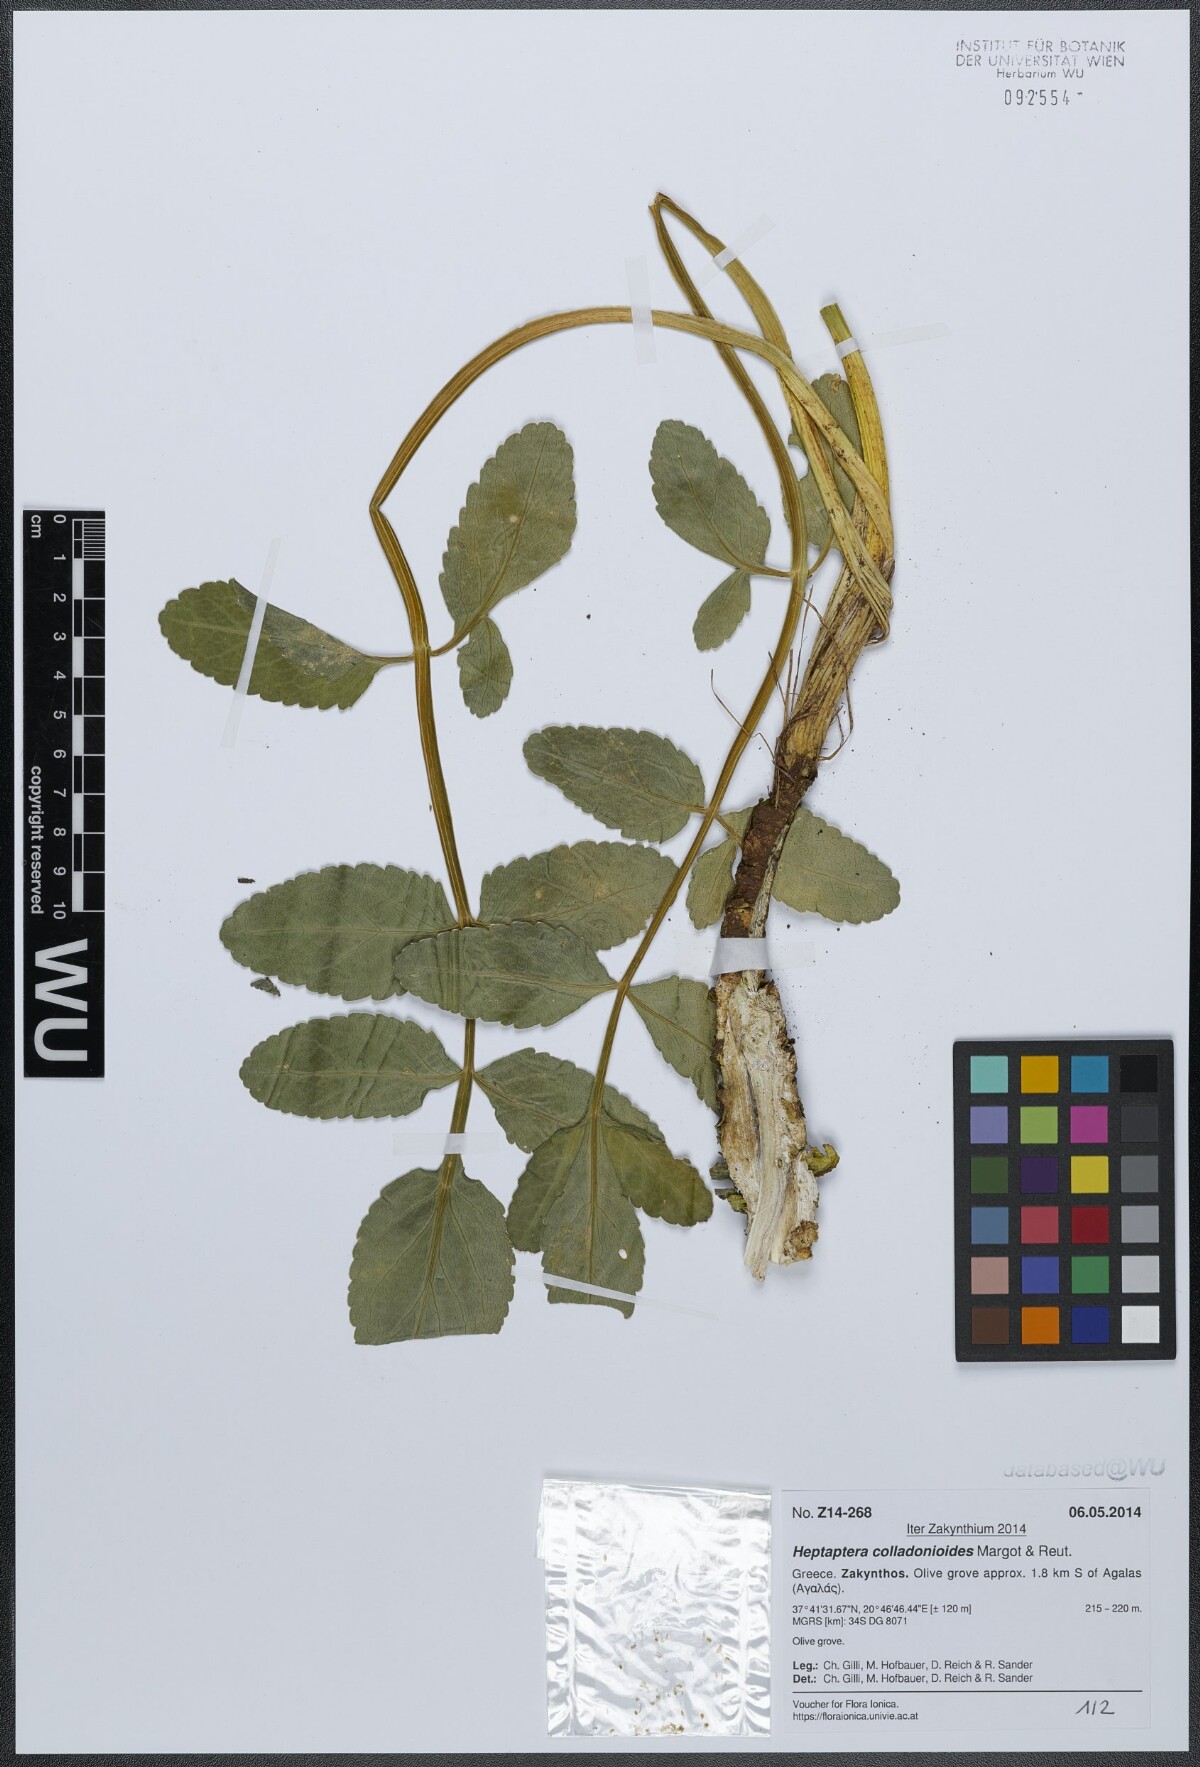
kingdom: Plantae
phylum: Tracheophyta
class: Magnoliopsida
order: Apiales
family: Apiaceae
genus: Heptaptera
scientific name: Heptaptera colladonioides
